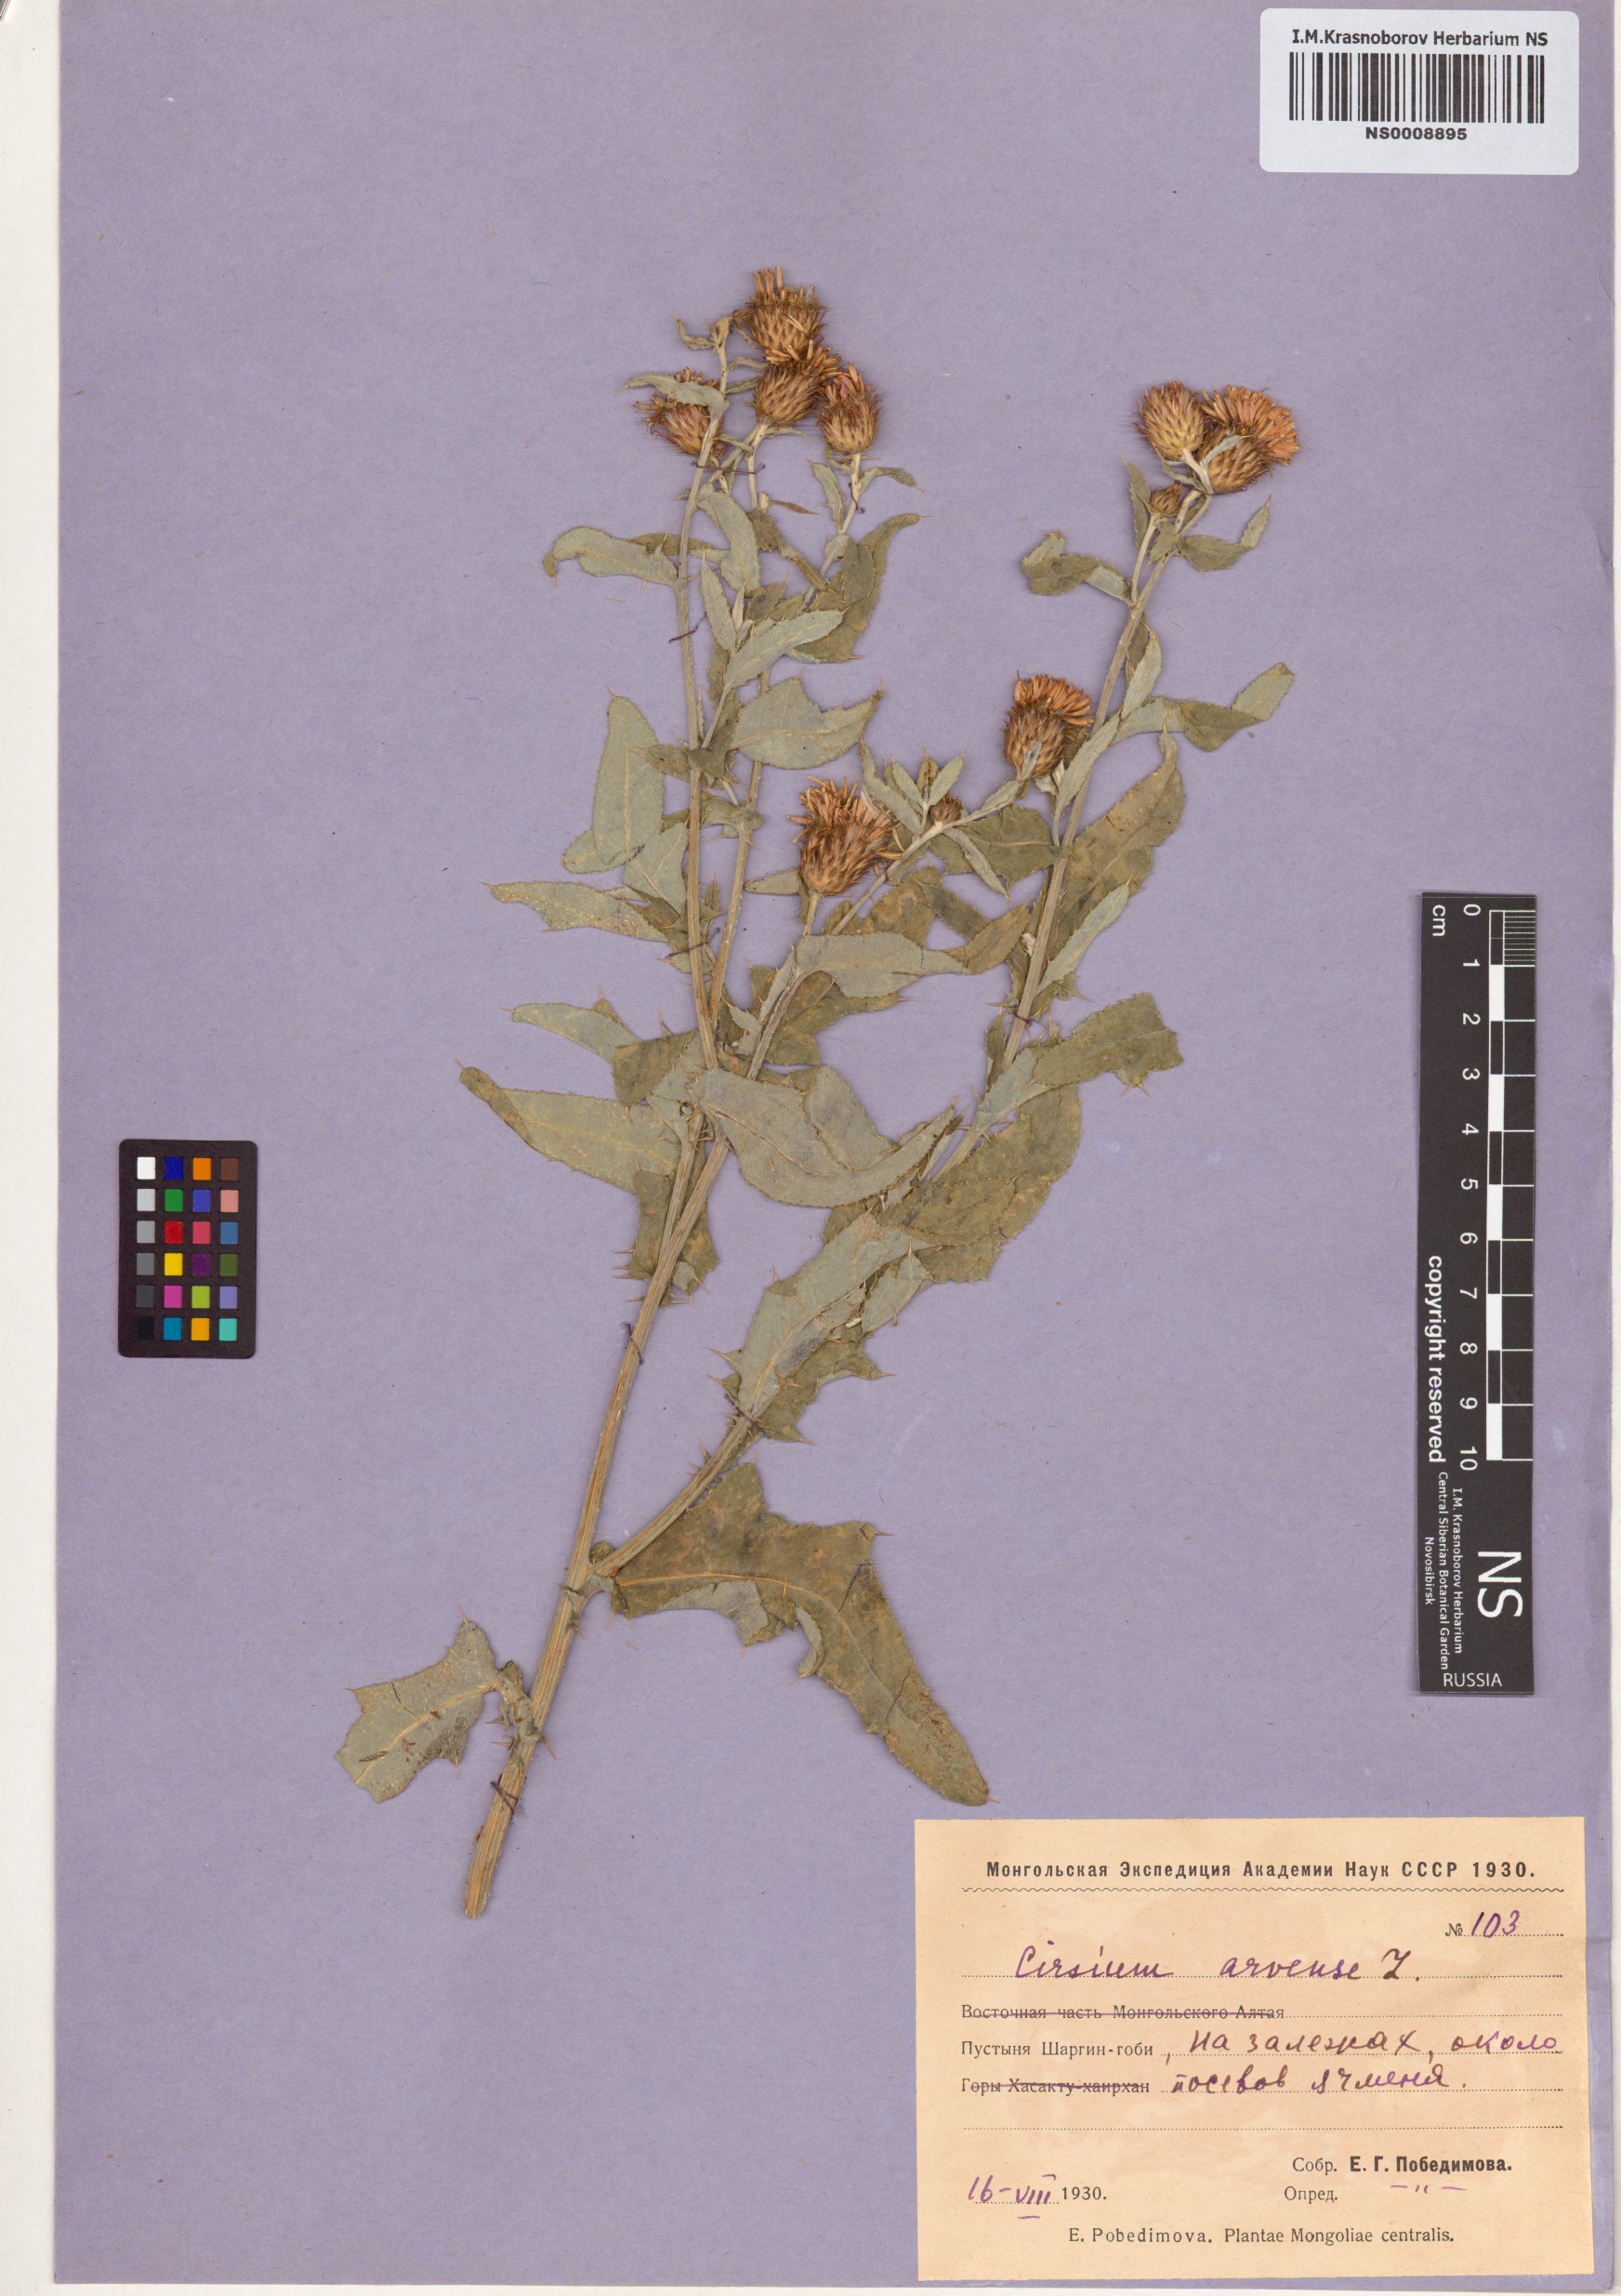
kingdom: Plantae
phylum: Tracheophyta
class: Magnoliopsida
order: Asterales
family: Asteraceae
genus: Cirsium
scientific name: Cirsium arvense
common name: Creeping thistle
